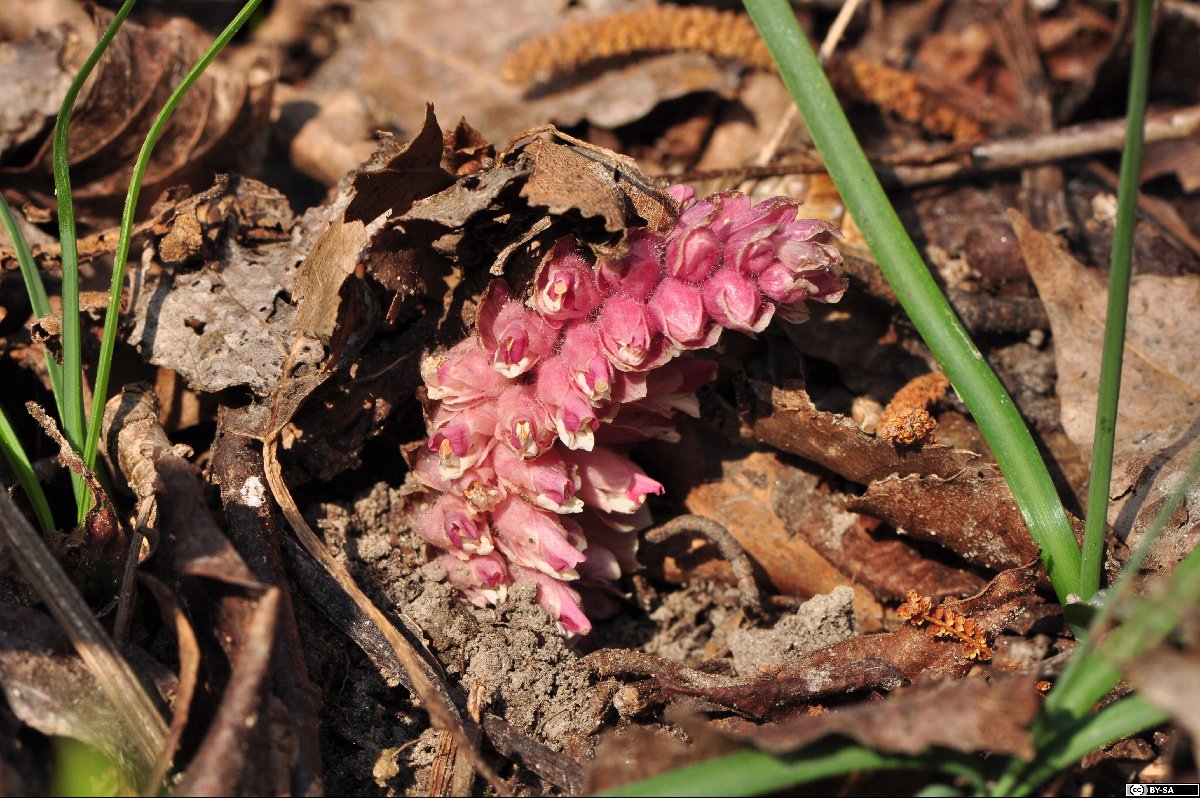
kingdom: Plantae
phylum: Tracheophyta
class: Magnoliopsida
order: Lamiales
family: Orobanchaceae
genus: Lathraea
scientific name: Lathraea squamaria
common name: Toothwort
